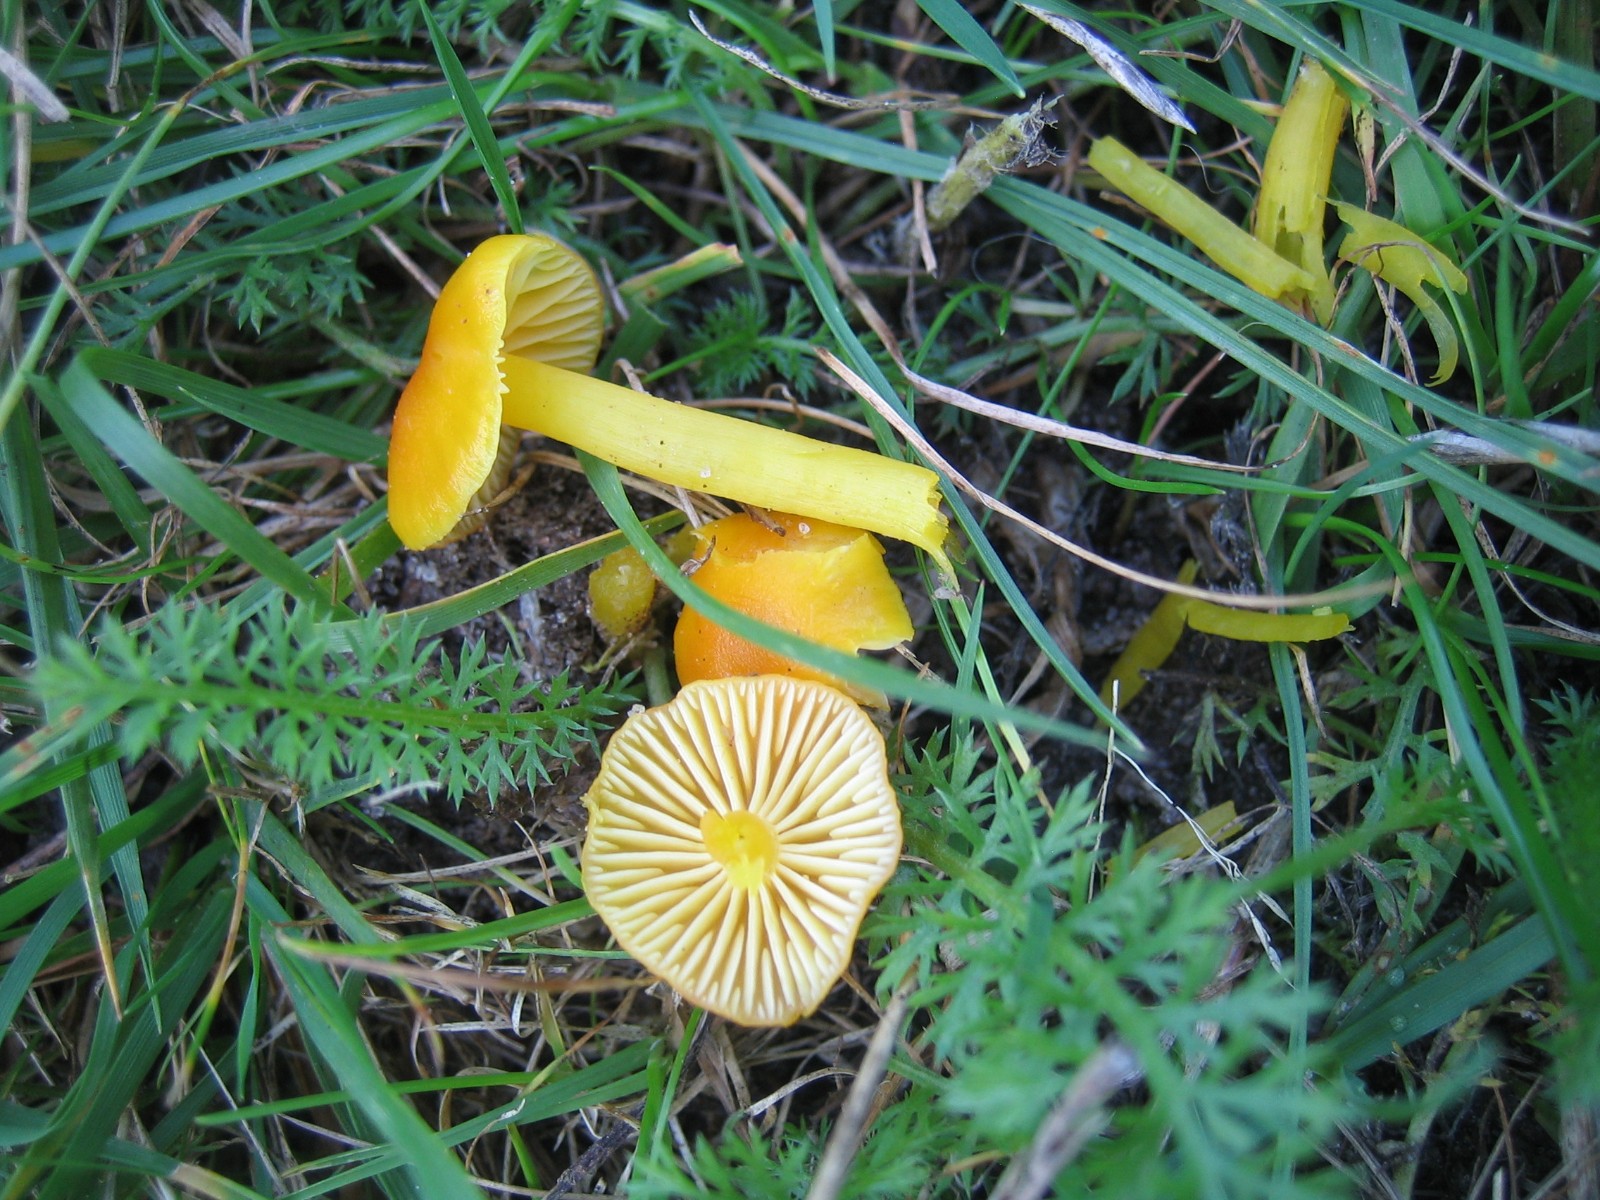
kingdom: Fungi
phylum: Basidiomycota
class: Agaricomycetes
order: Agaricales
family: Hygrophoraceae
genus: Hygrocybe
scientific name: Hygrocybe ceracea
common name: voksgul vokshat
